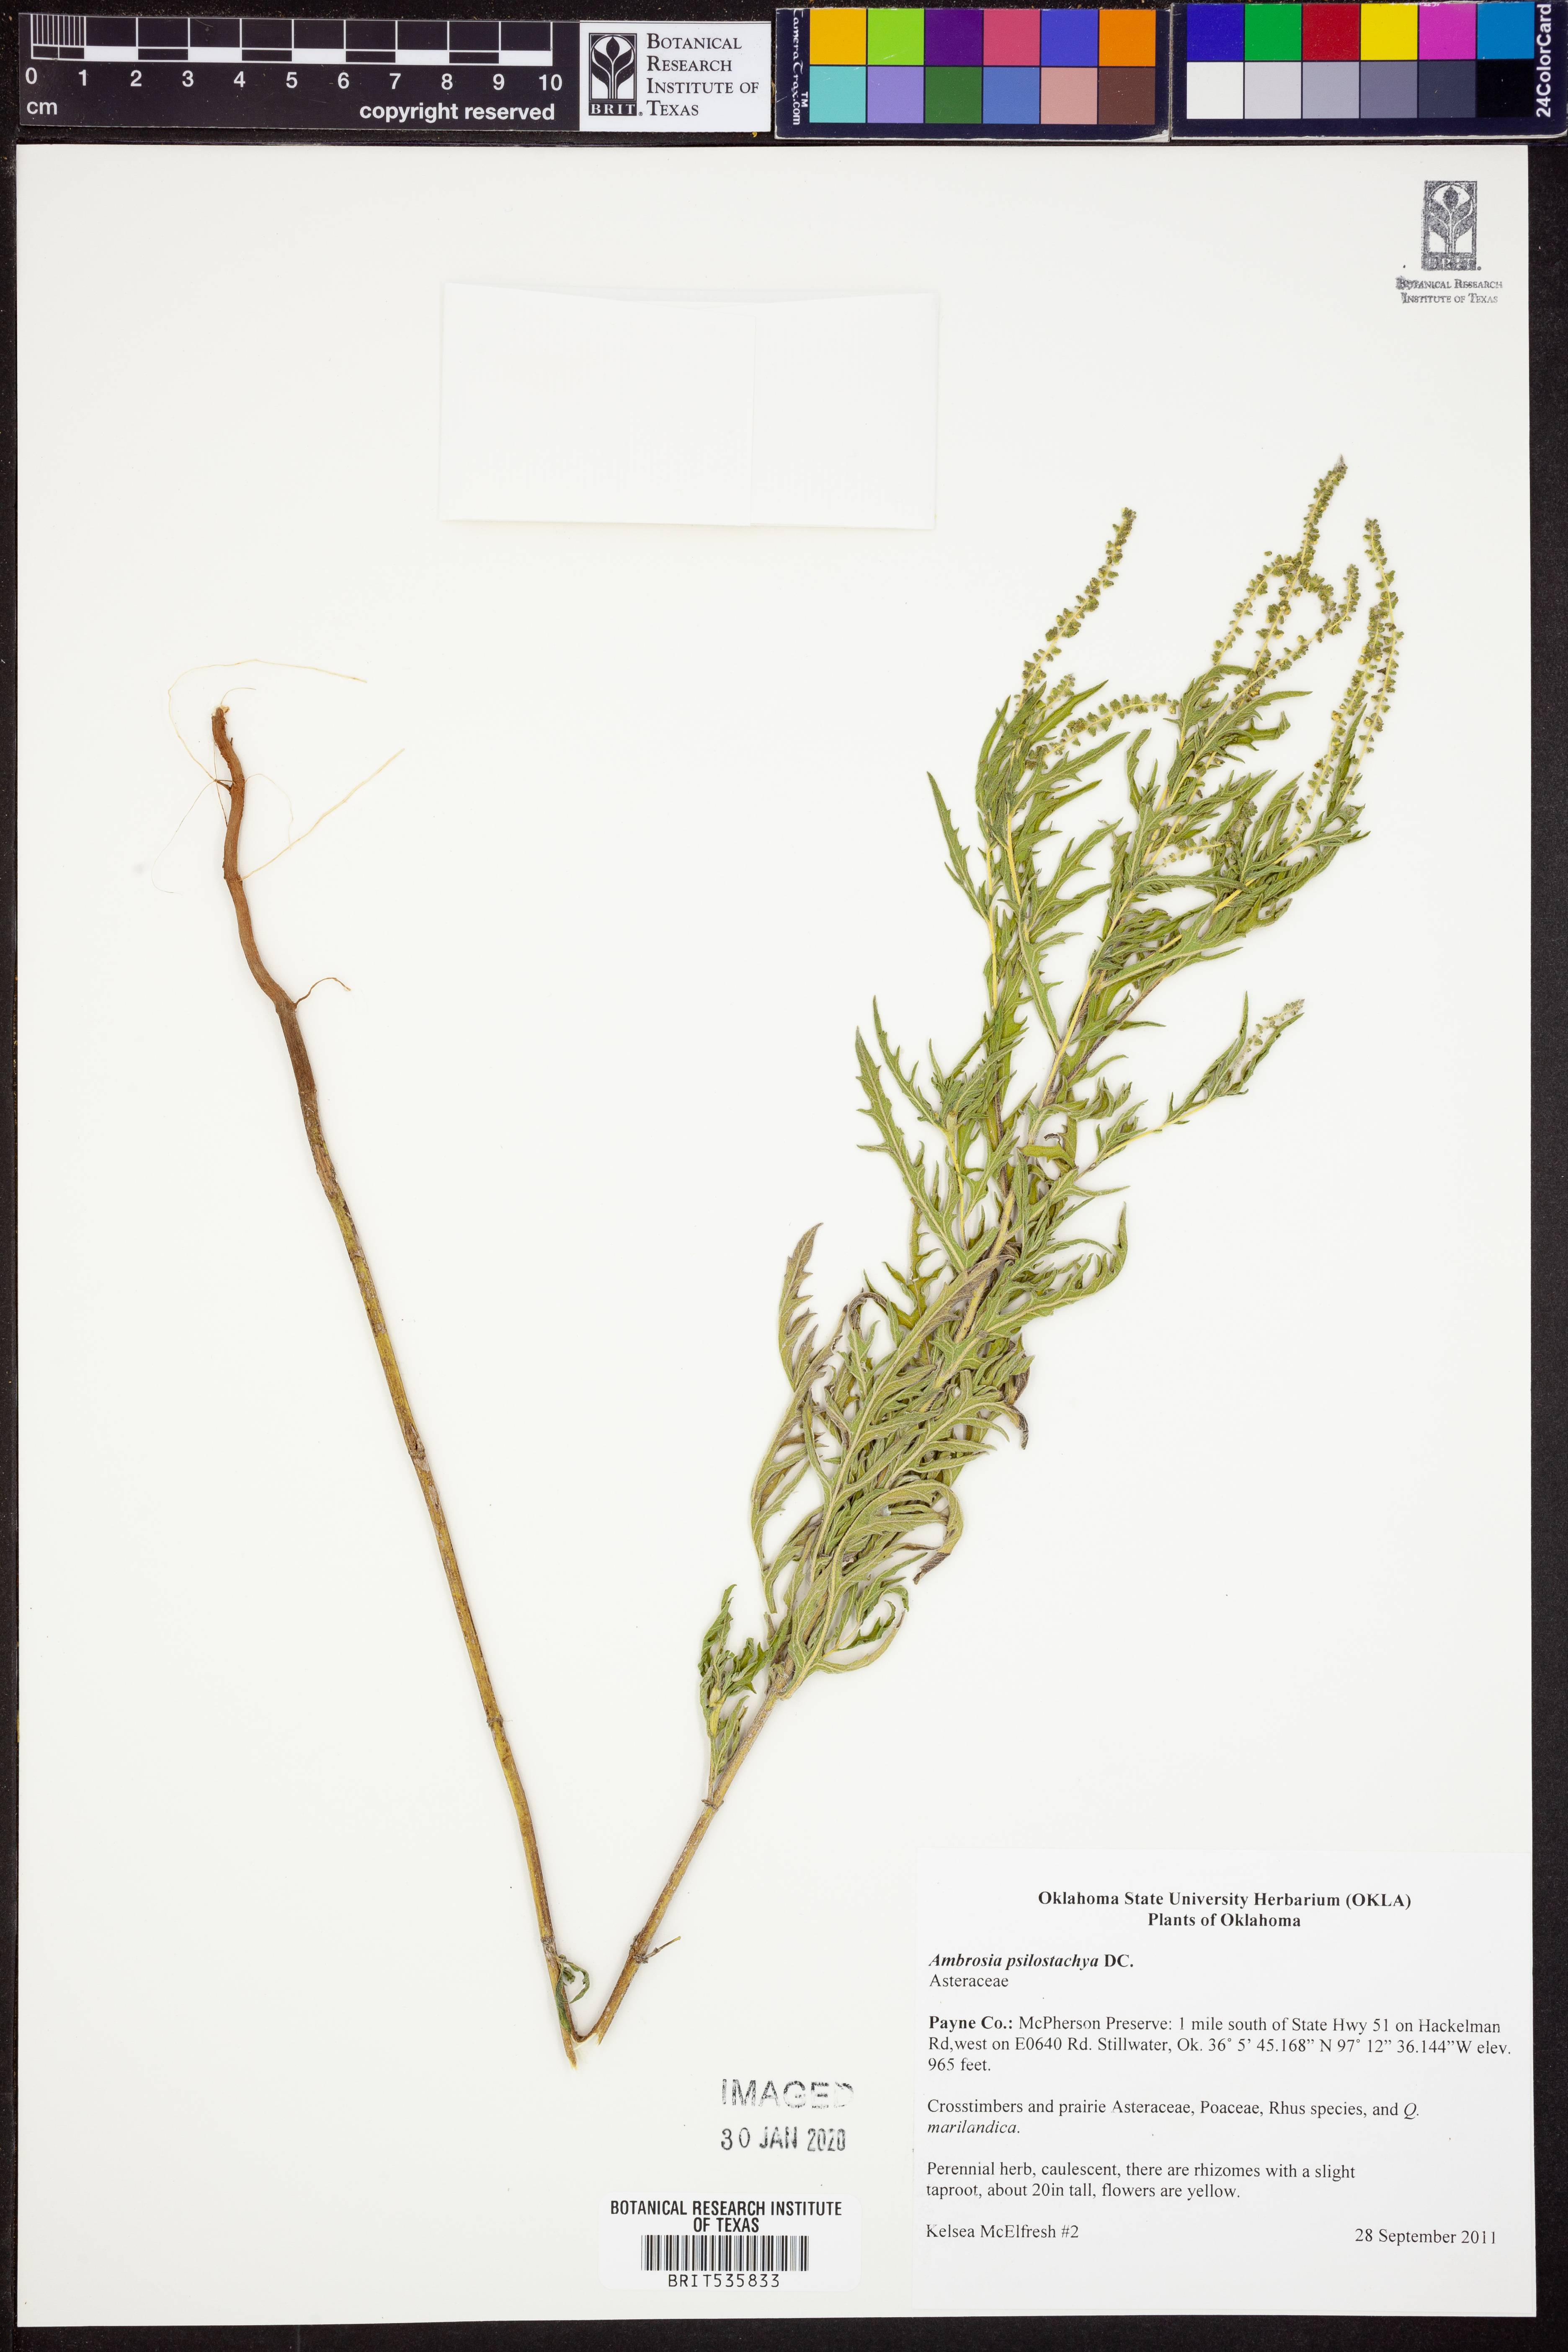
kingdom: Plantae
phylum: Tracheophyta
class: Magnoliopsida
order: Asterales
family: Asteraceae
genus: Ambrosia
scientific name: Ambrosia psilostachya
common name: Perennial ragweed
